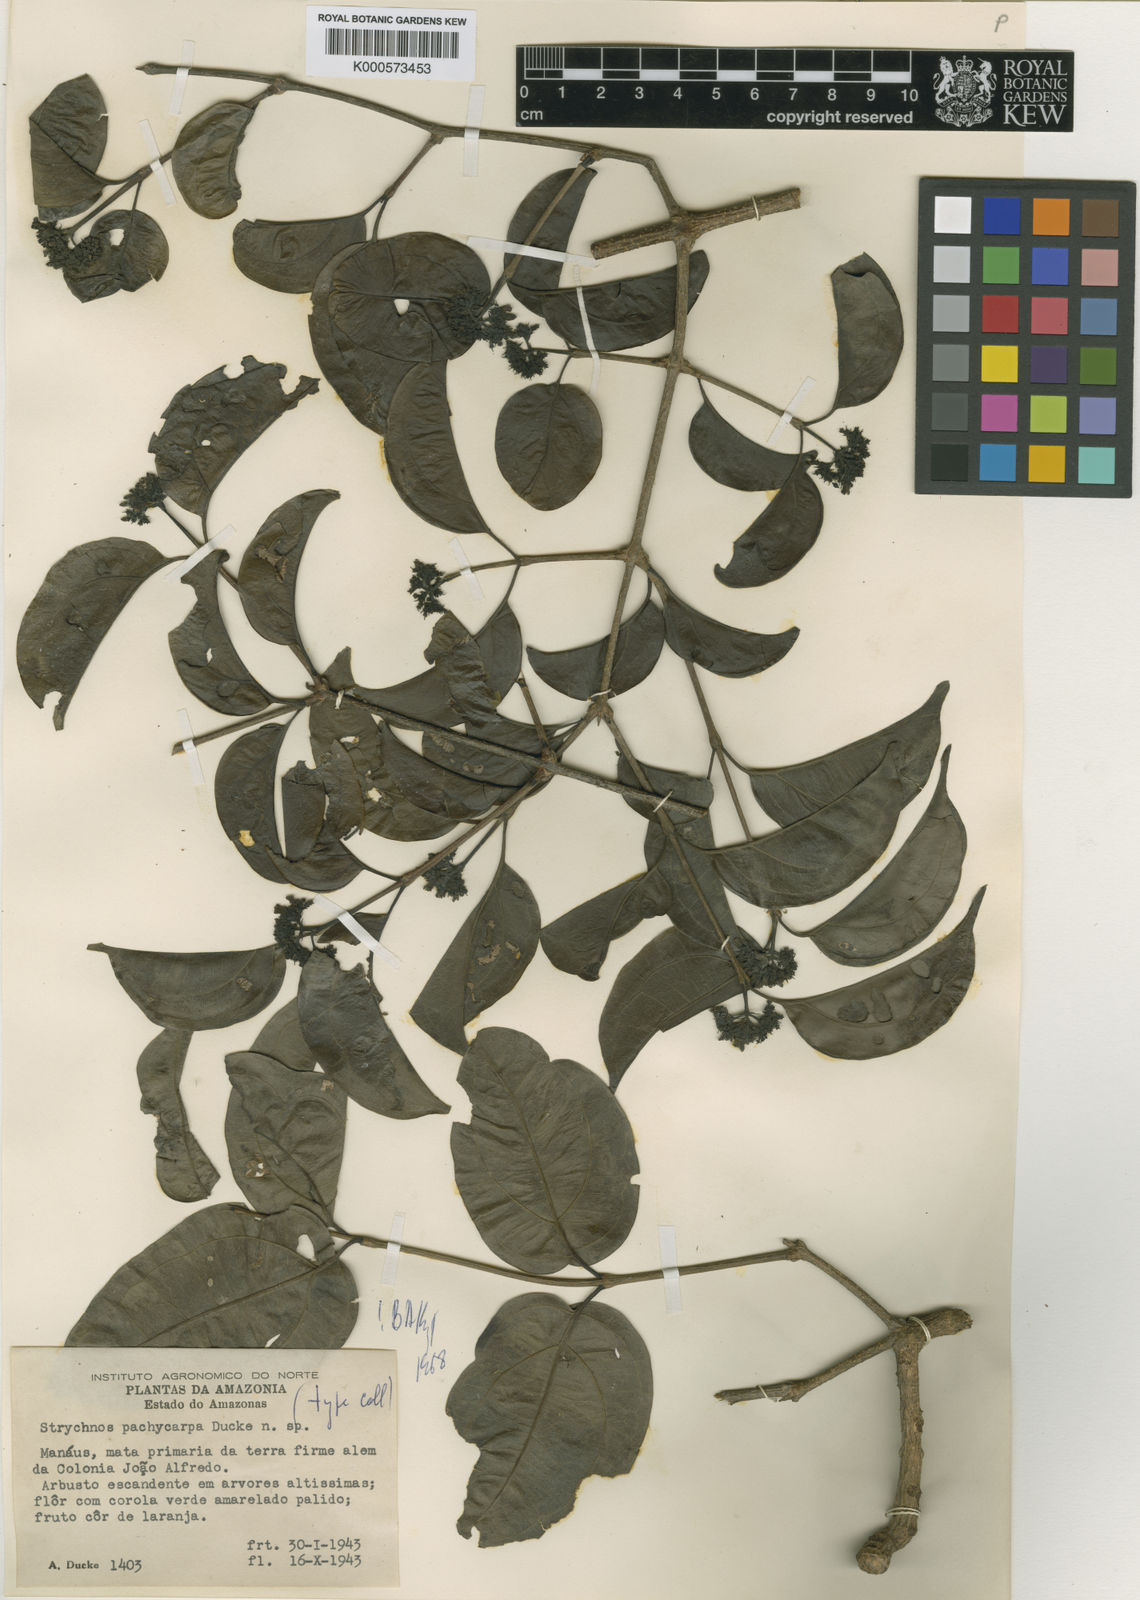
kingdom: Plantae
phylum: Tracheophyta
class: Magnoliopsida
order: Gentianales
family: Loganiaceae
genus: Strychnos
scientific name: Strychnos pachycarpa
